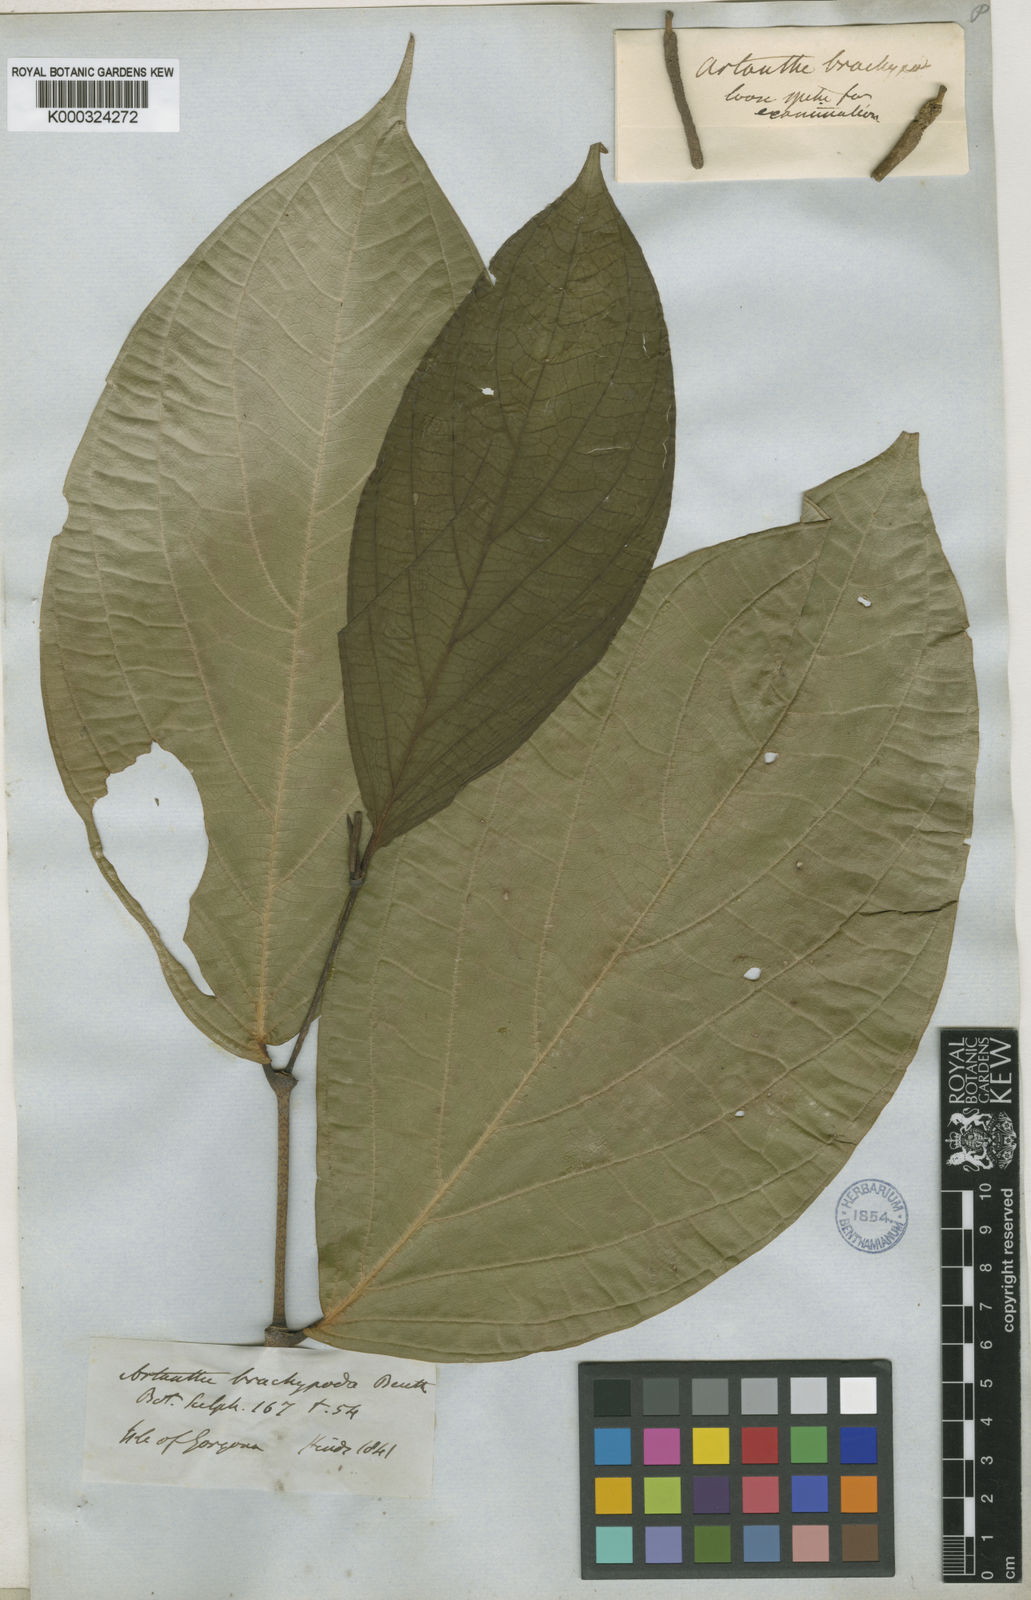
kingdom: Plantae
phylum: Tracheophyta
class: Magnoliopsida
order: Piperales
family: Piperaceae
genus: Piper
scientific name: Piper brachypodon
